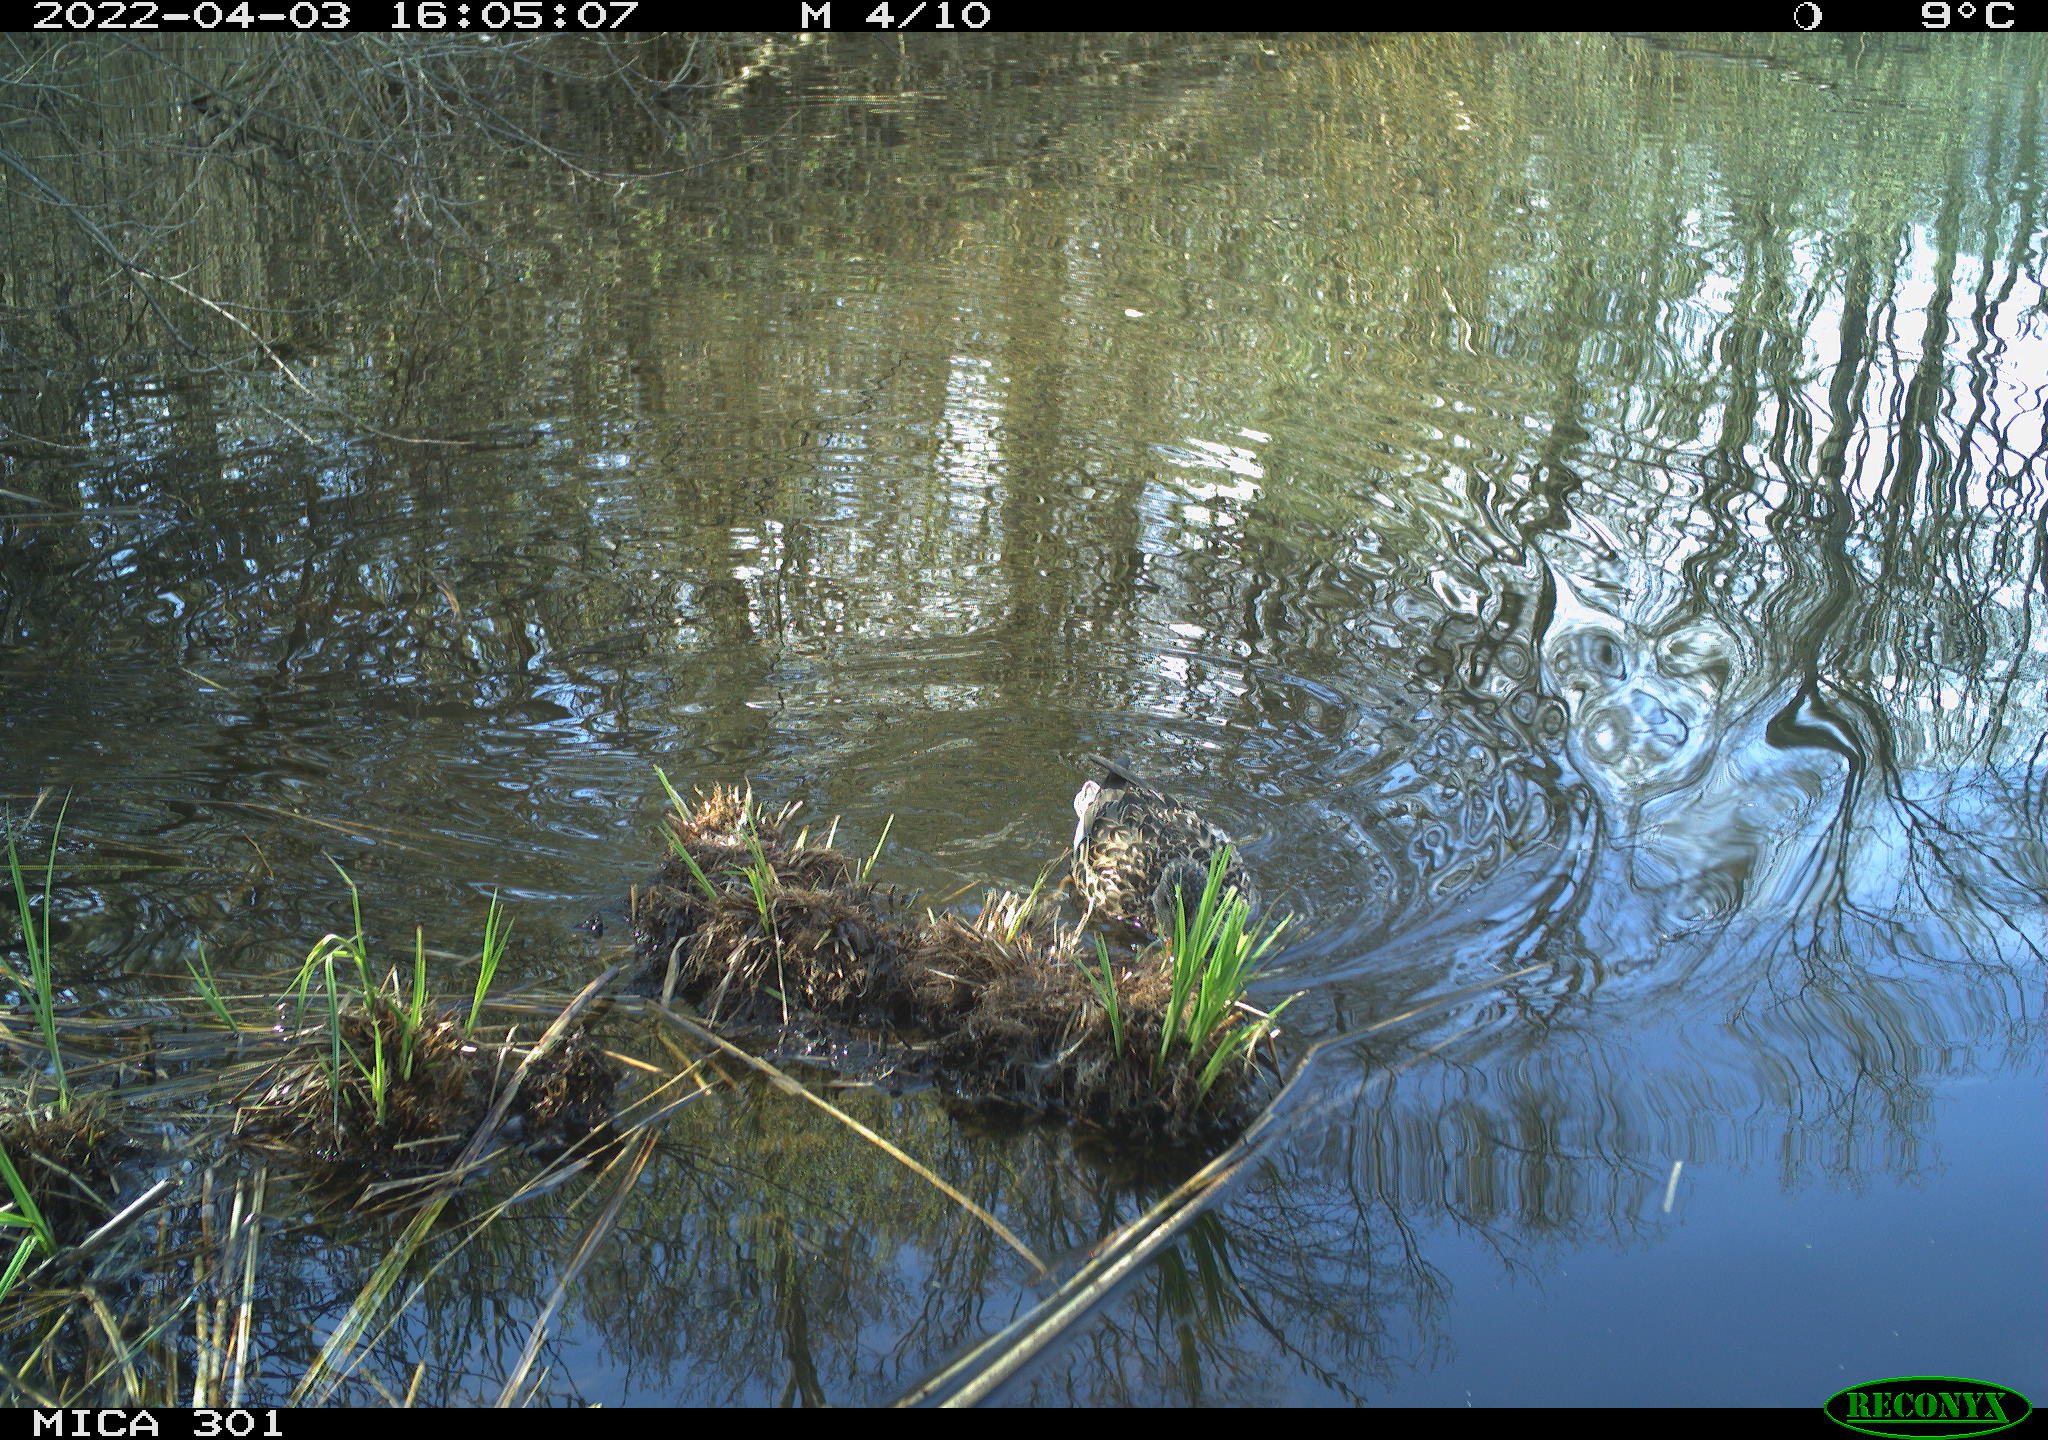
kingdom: Animalia
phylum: Chordata
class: Aves
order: Anseriformes
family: Anatidae
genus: Mareca
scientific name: Mareca strepera
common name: Gadwall
